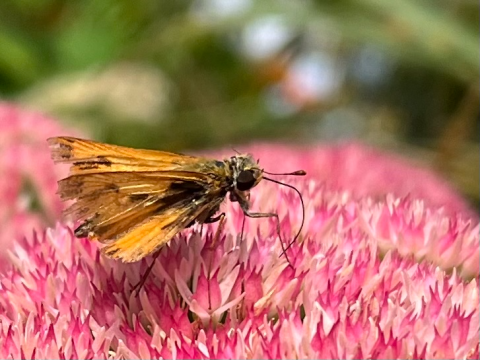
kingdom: Animalia
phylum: Arthropoda
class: Insecta
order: Lepidoptera
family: Hesperiidae
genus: Hylephila
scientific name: Hylephila phyleus
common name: Fiery Skipper
